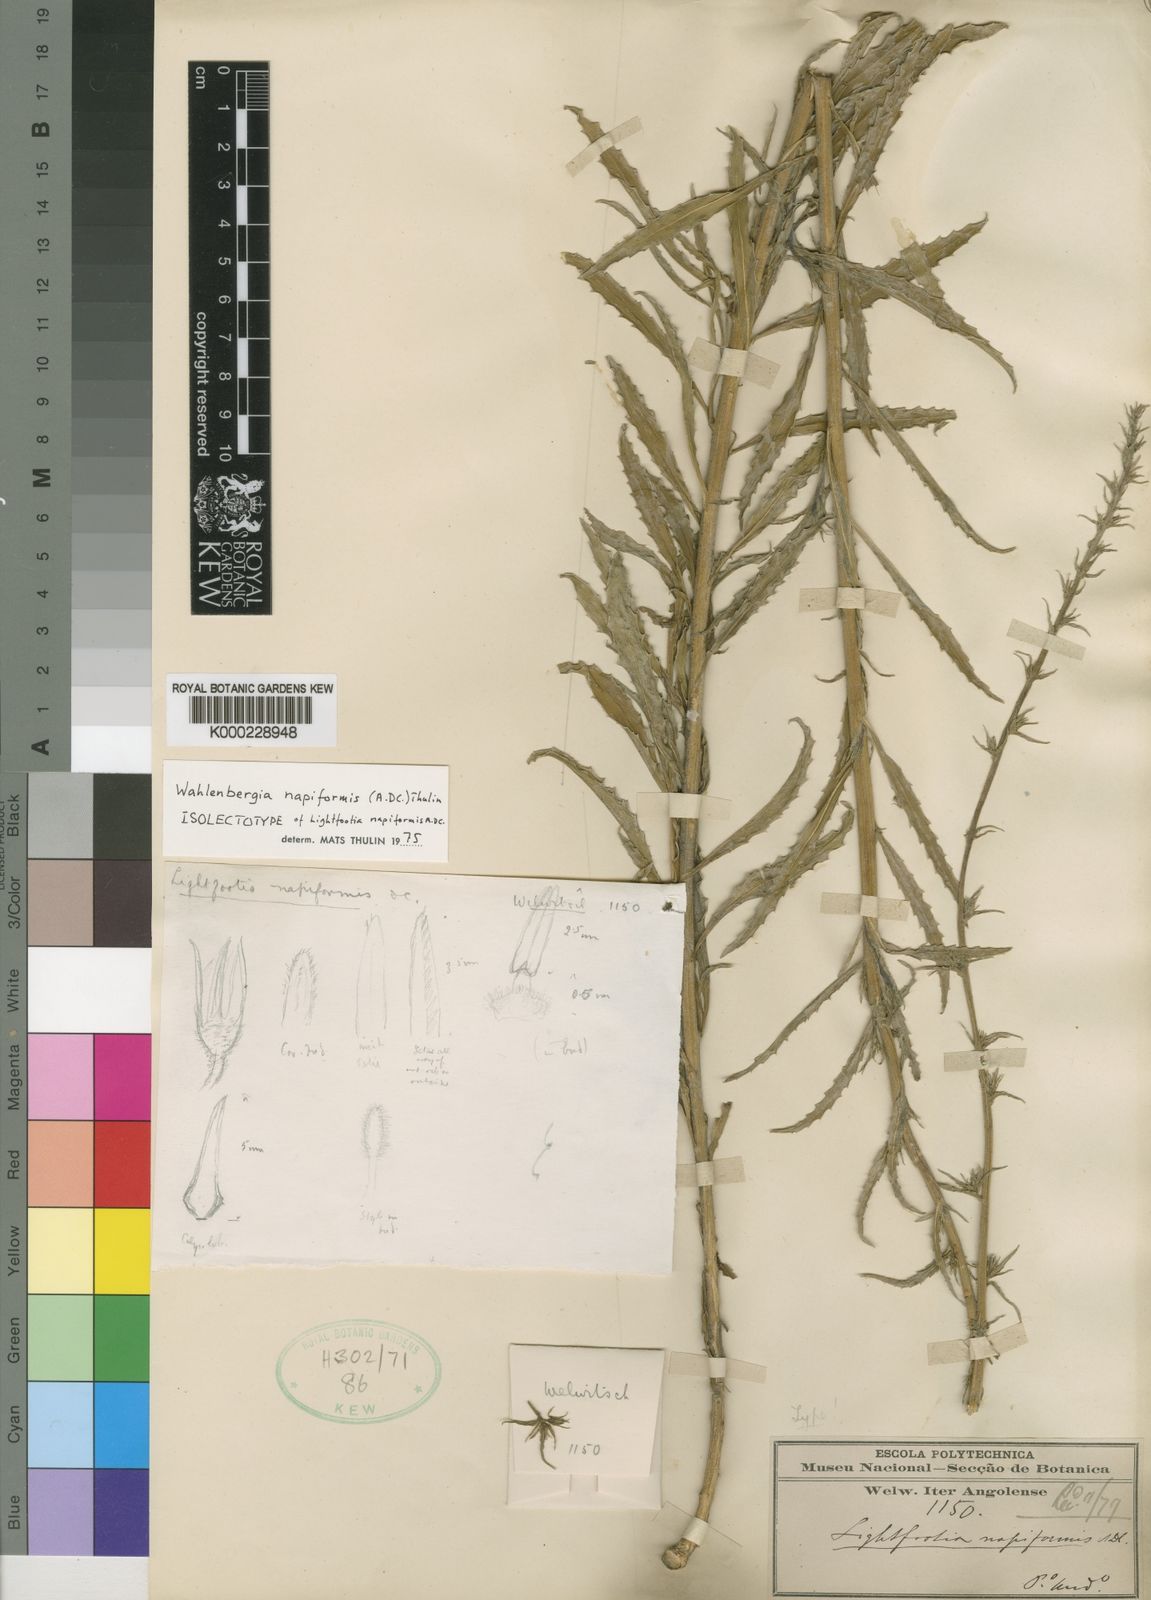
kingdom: Plantae
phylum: Tracheophyta
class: Magnoliopsida
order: Asterales
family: Campanulaceae
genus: Wahlenbergia
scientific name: Wahlenbergia napiformis
